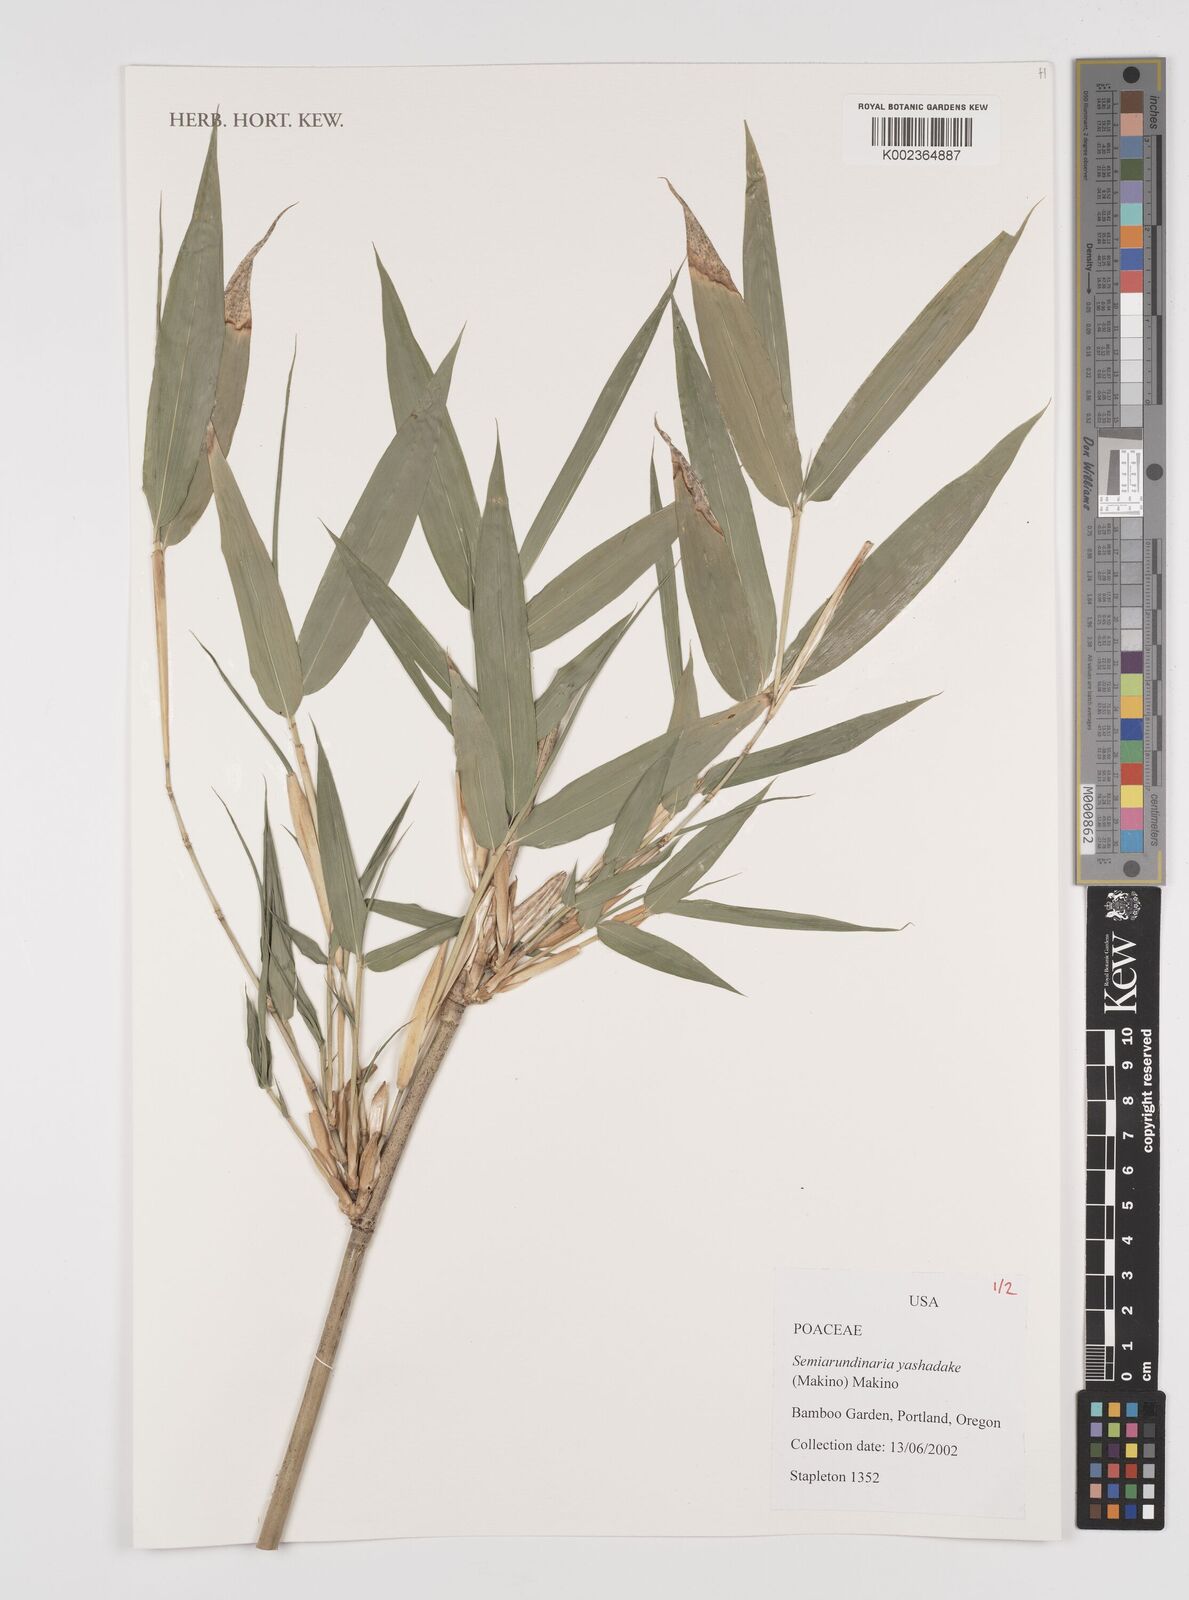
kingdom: Plantae
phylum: Tracheophyta
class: Liliopsida
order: Poales
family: Poaceae
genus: Semiarundinaria
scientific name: Semiarundinaria yashadake
